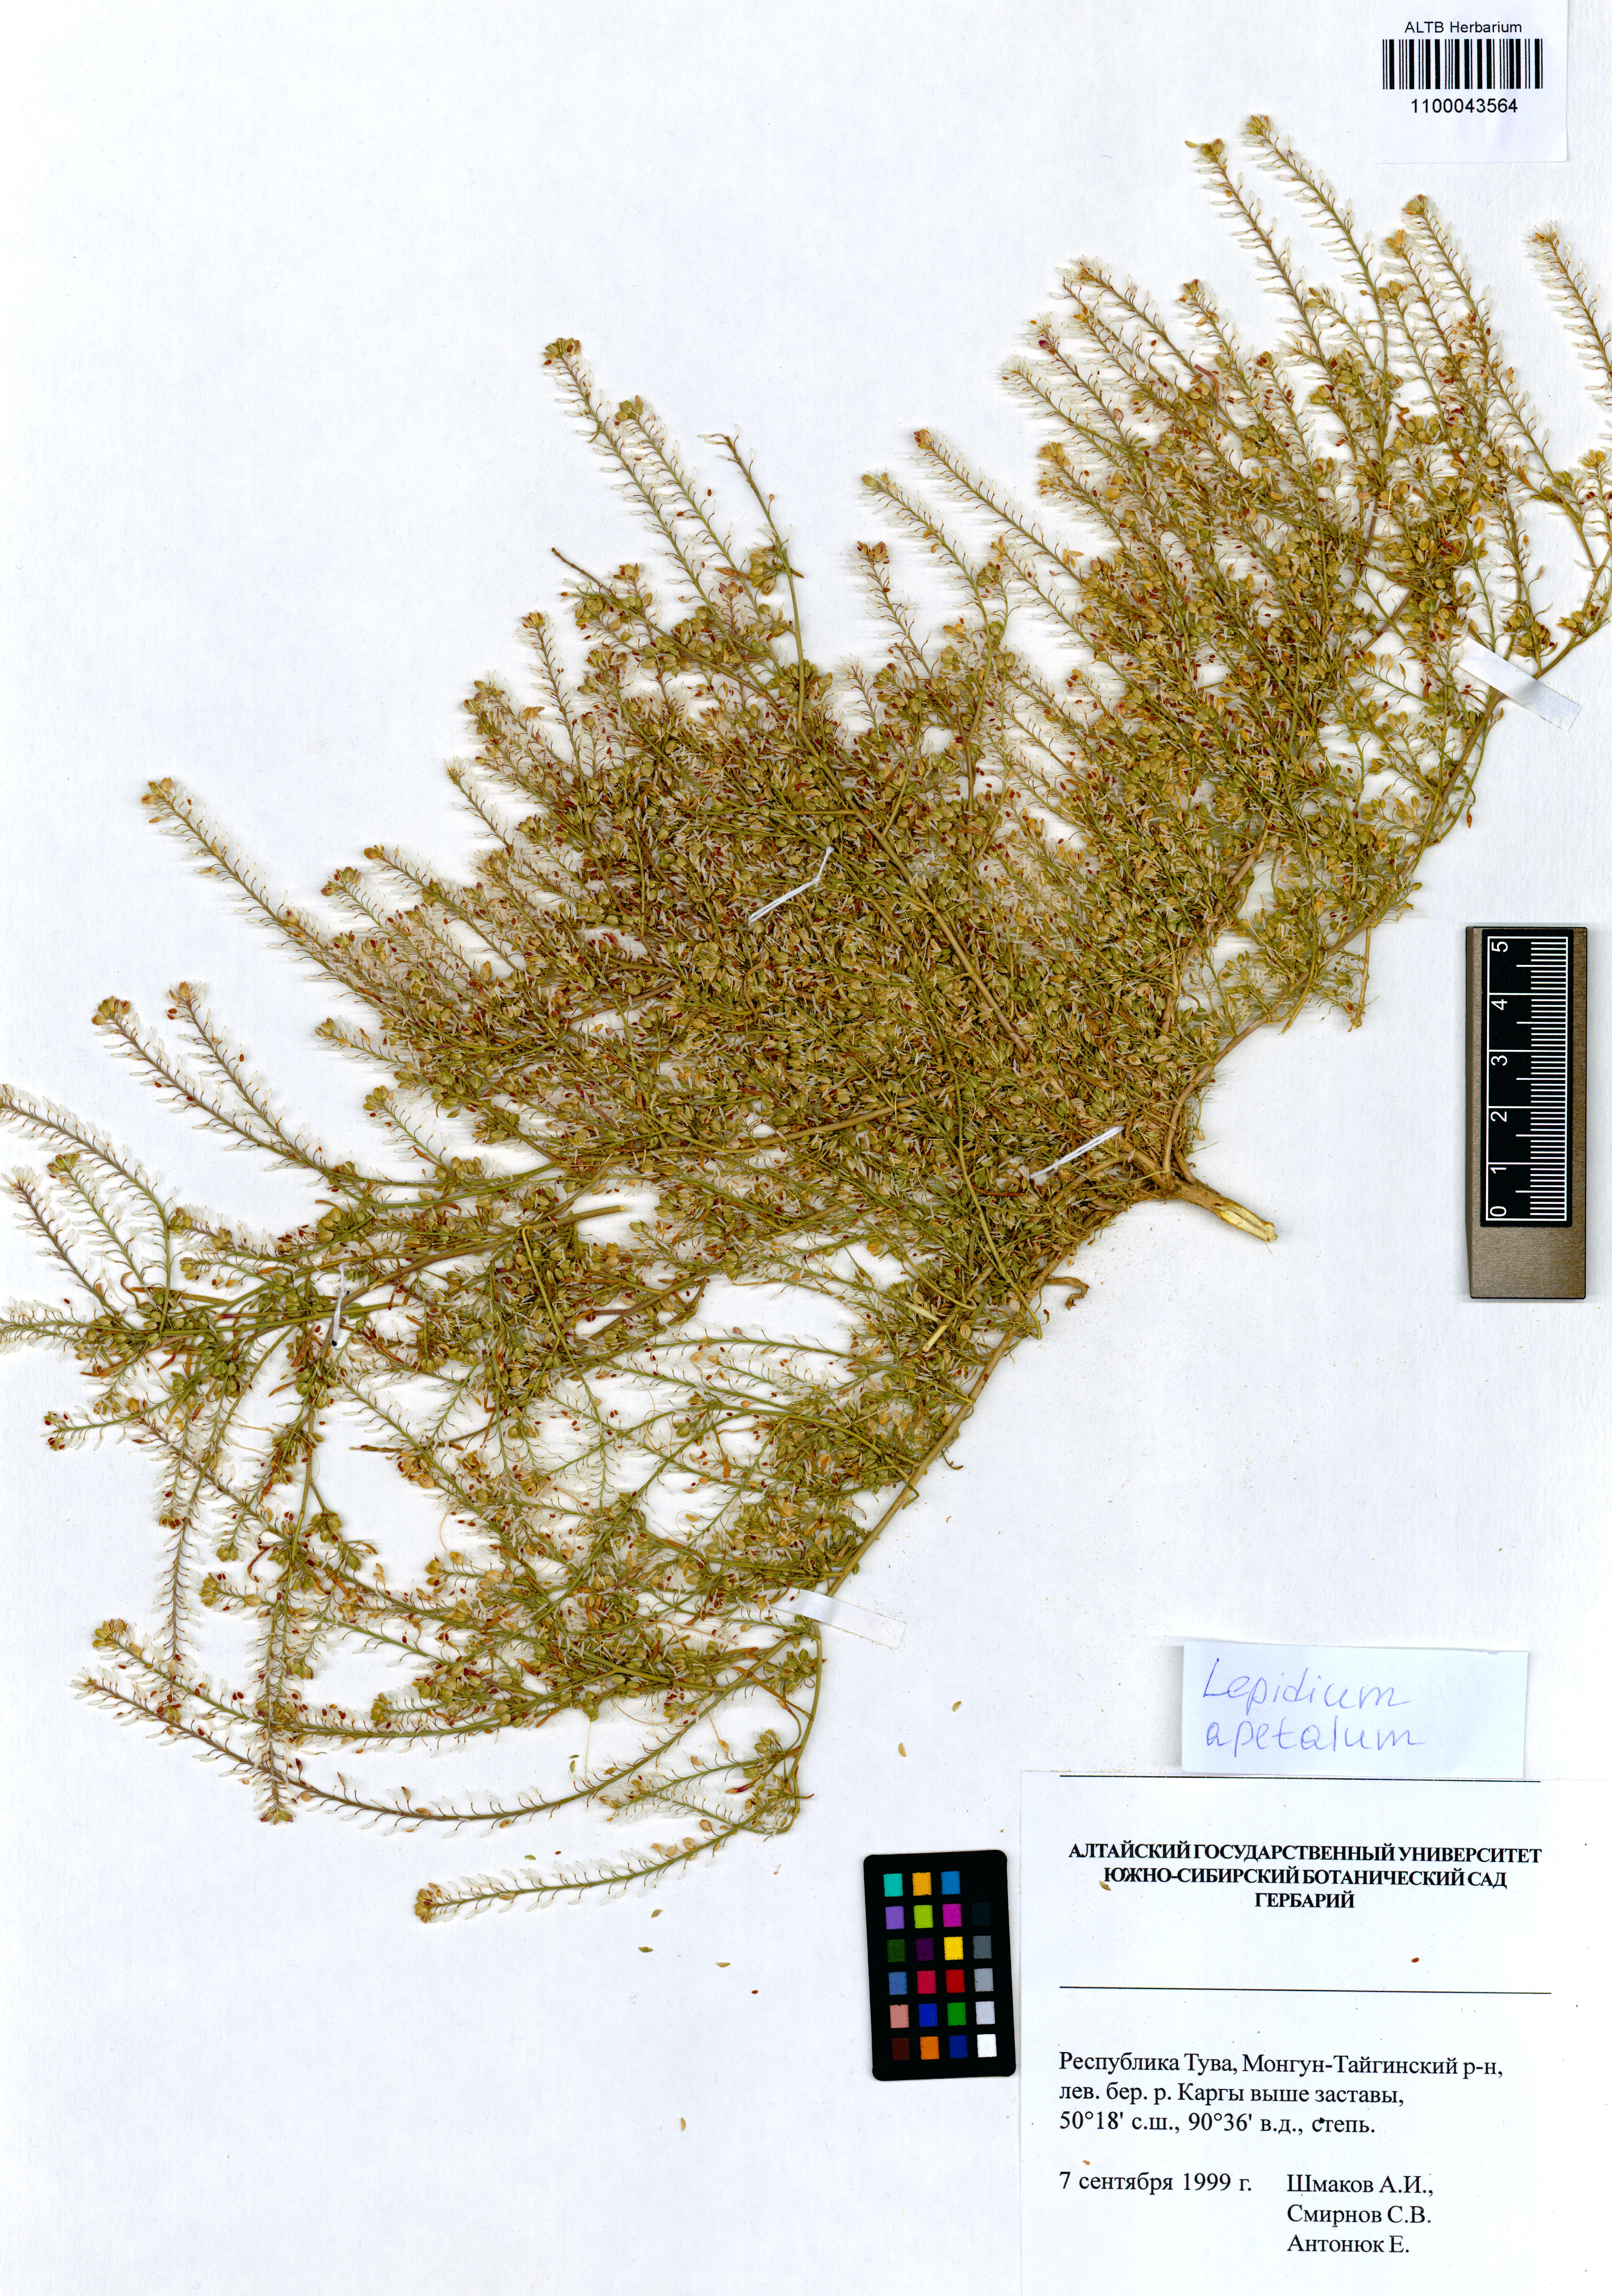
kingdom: Plantae
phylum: Tracheophyta
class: Magnoliopsida
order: Brassicales
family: Brassicaceae
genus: Lepidium
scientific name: Lepidium apetalum
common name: Pepperweed
